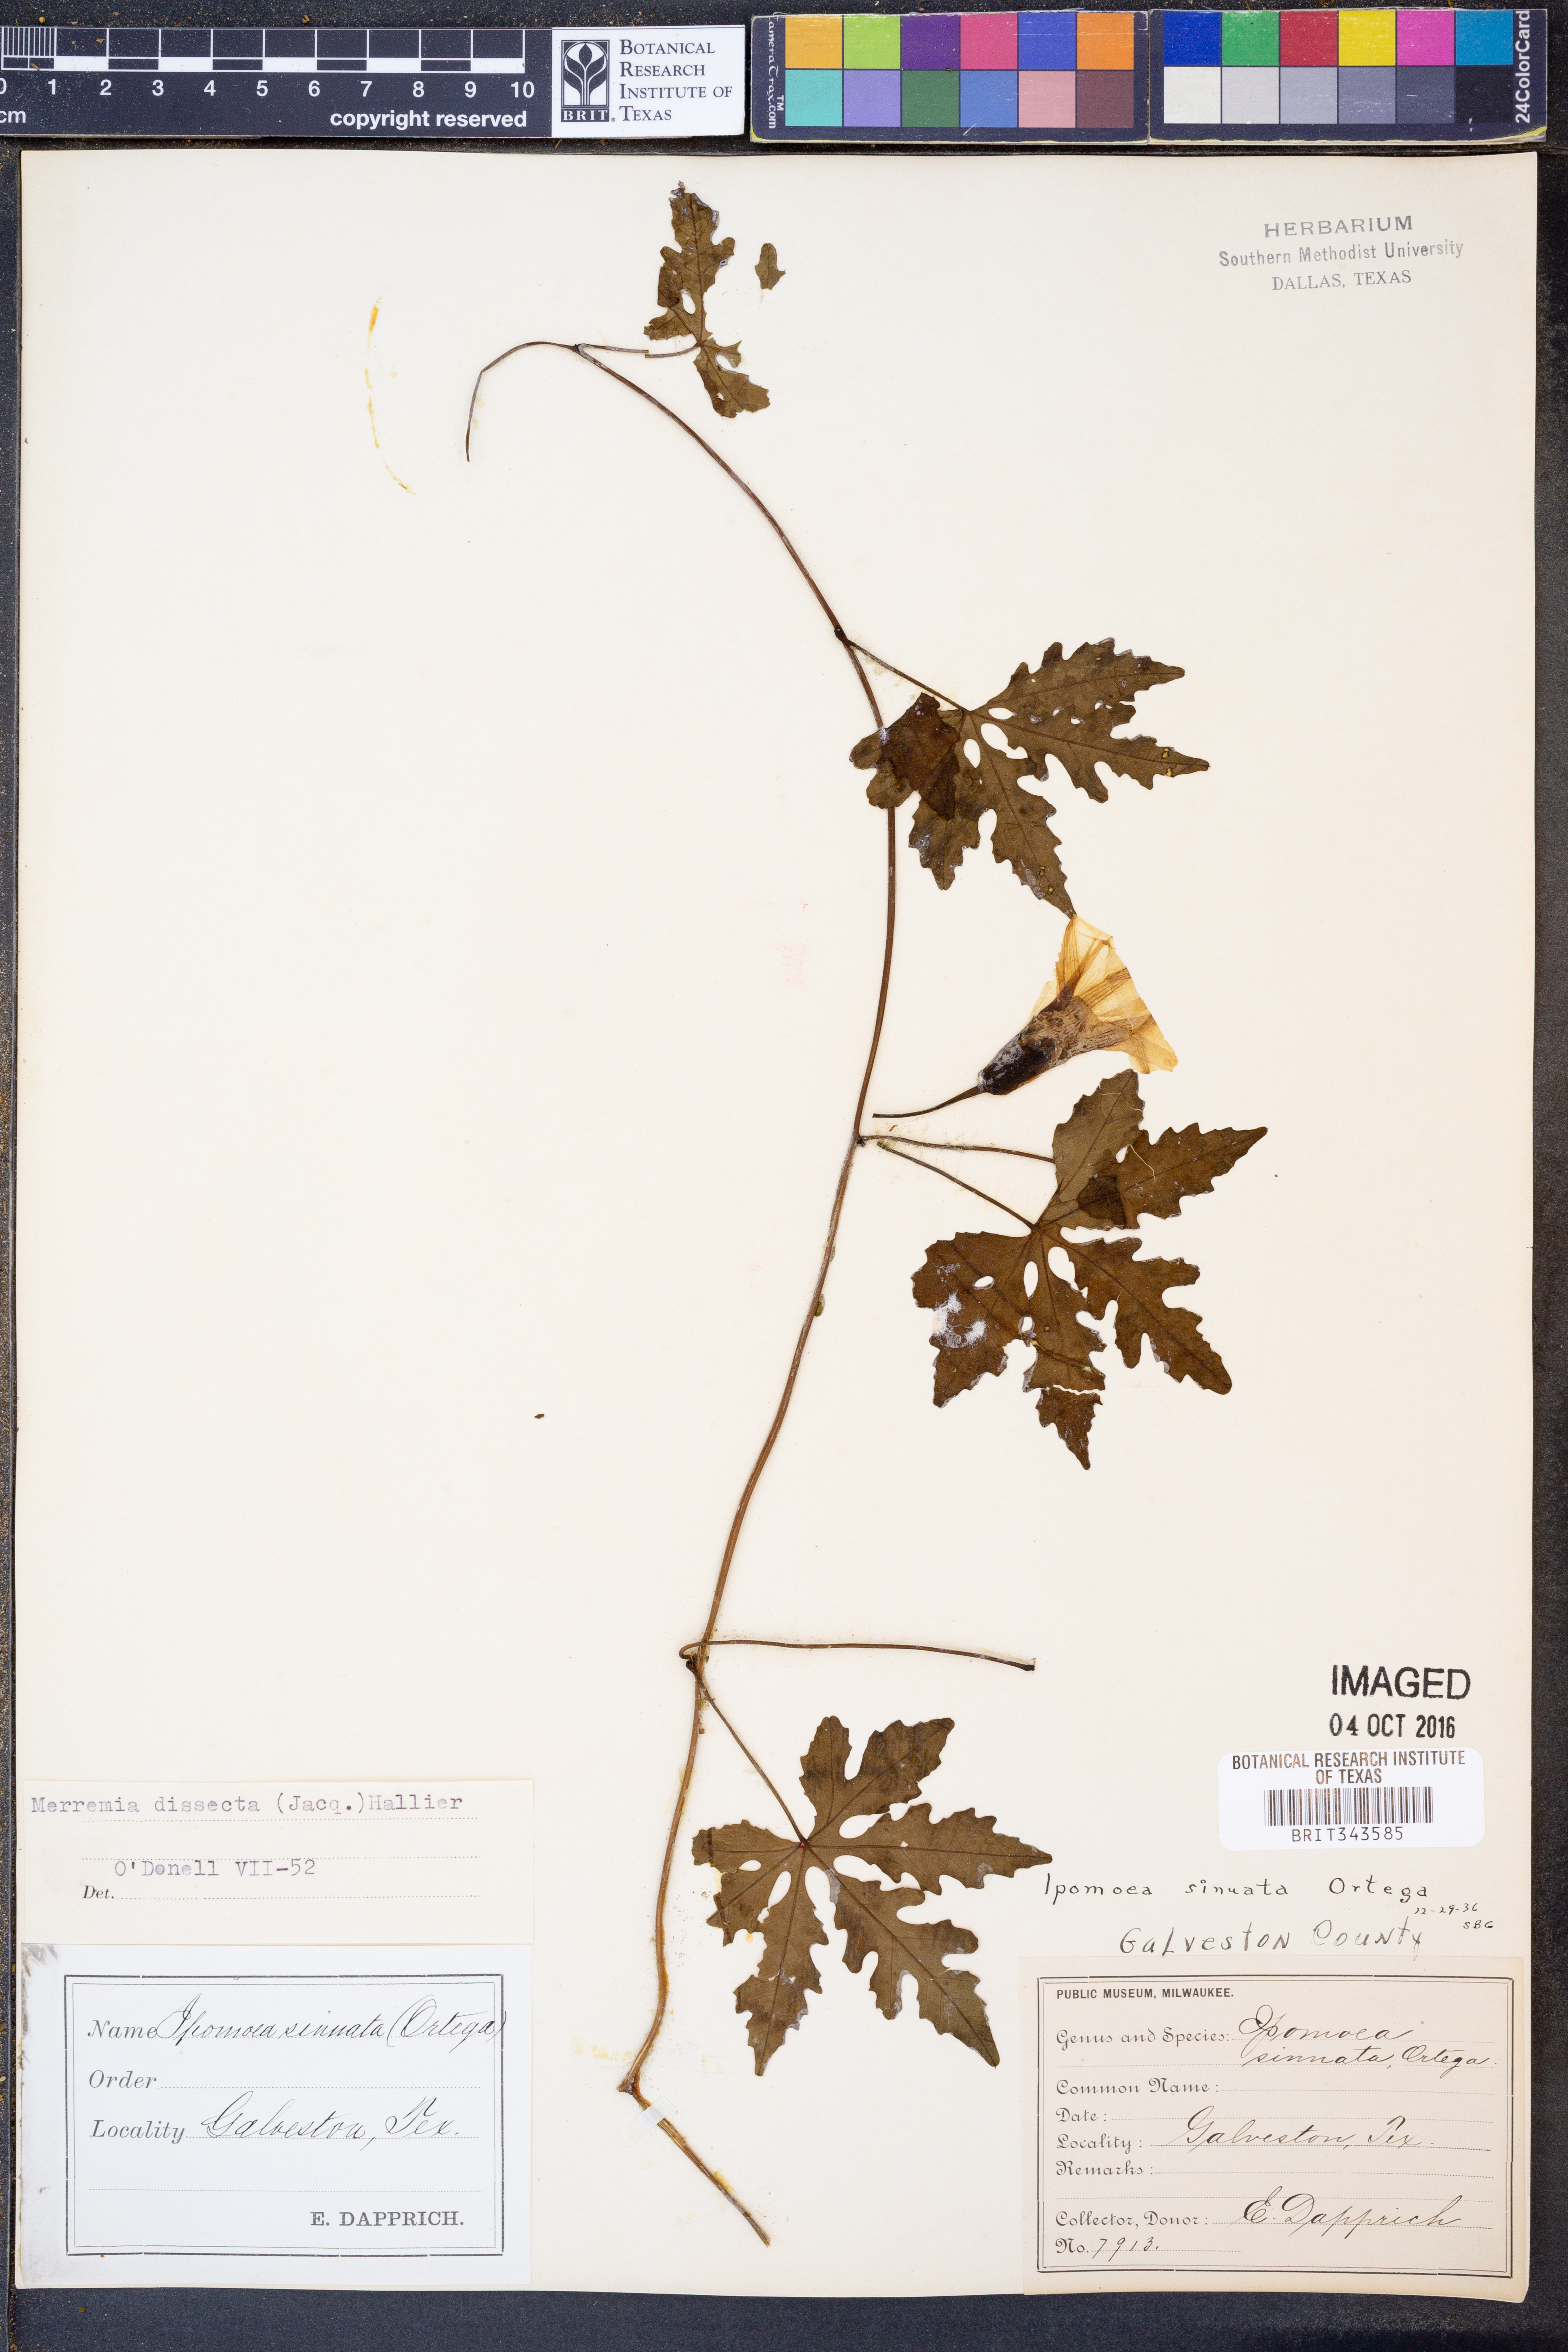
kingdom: Plantae
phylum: Tracheophyta
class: Magnoliopsida
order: Solanales
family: Convolvulaceae
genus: Distimake
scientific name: Distimake dissectus
